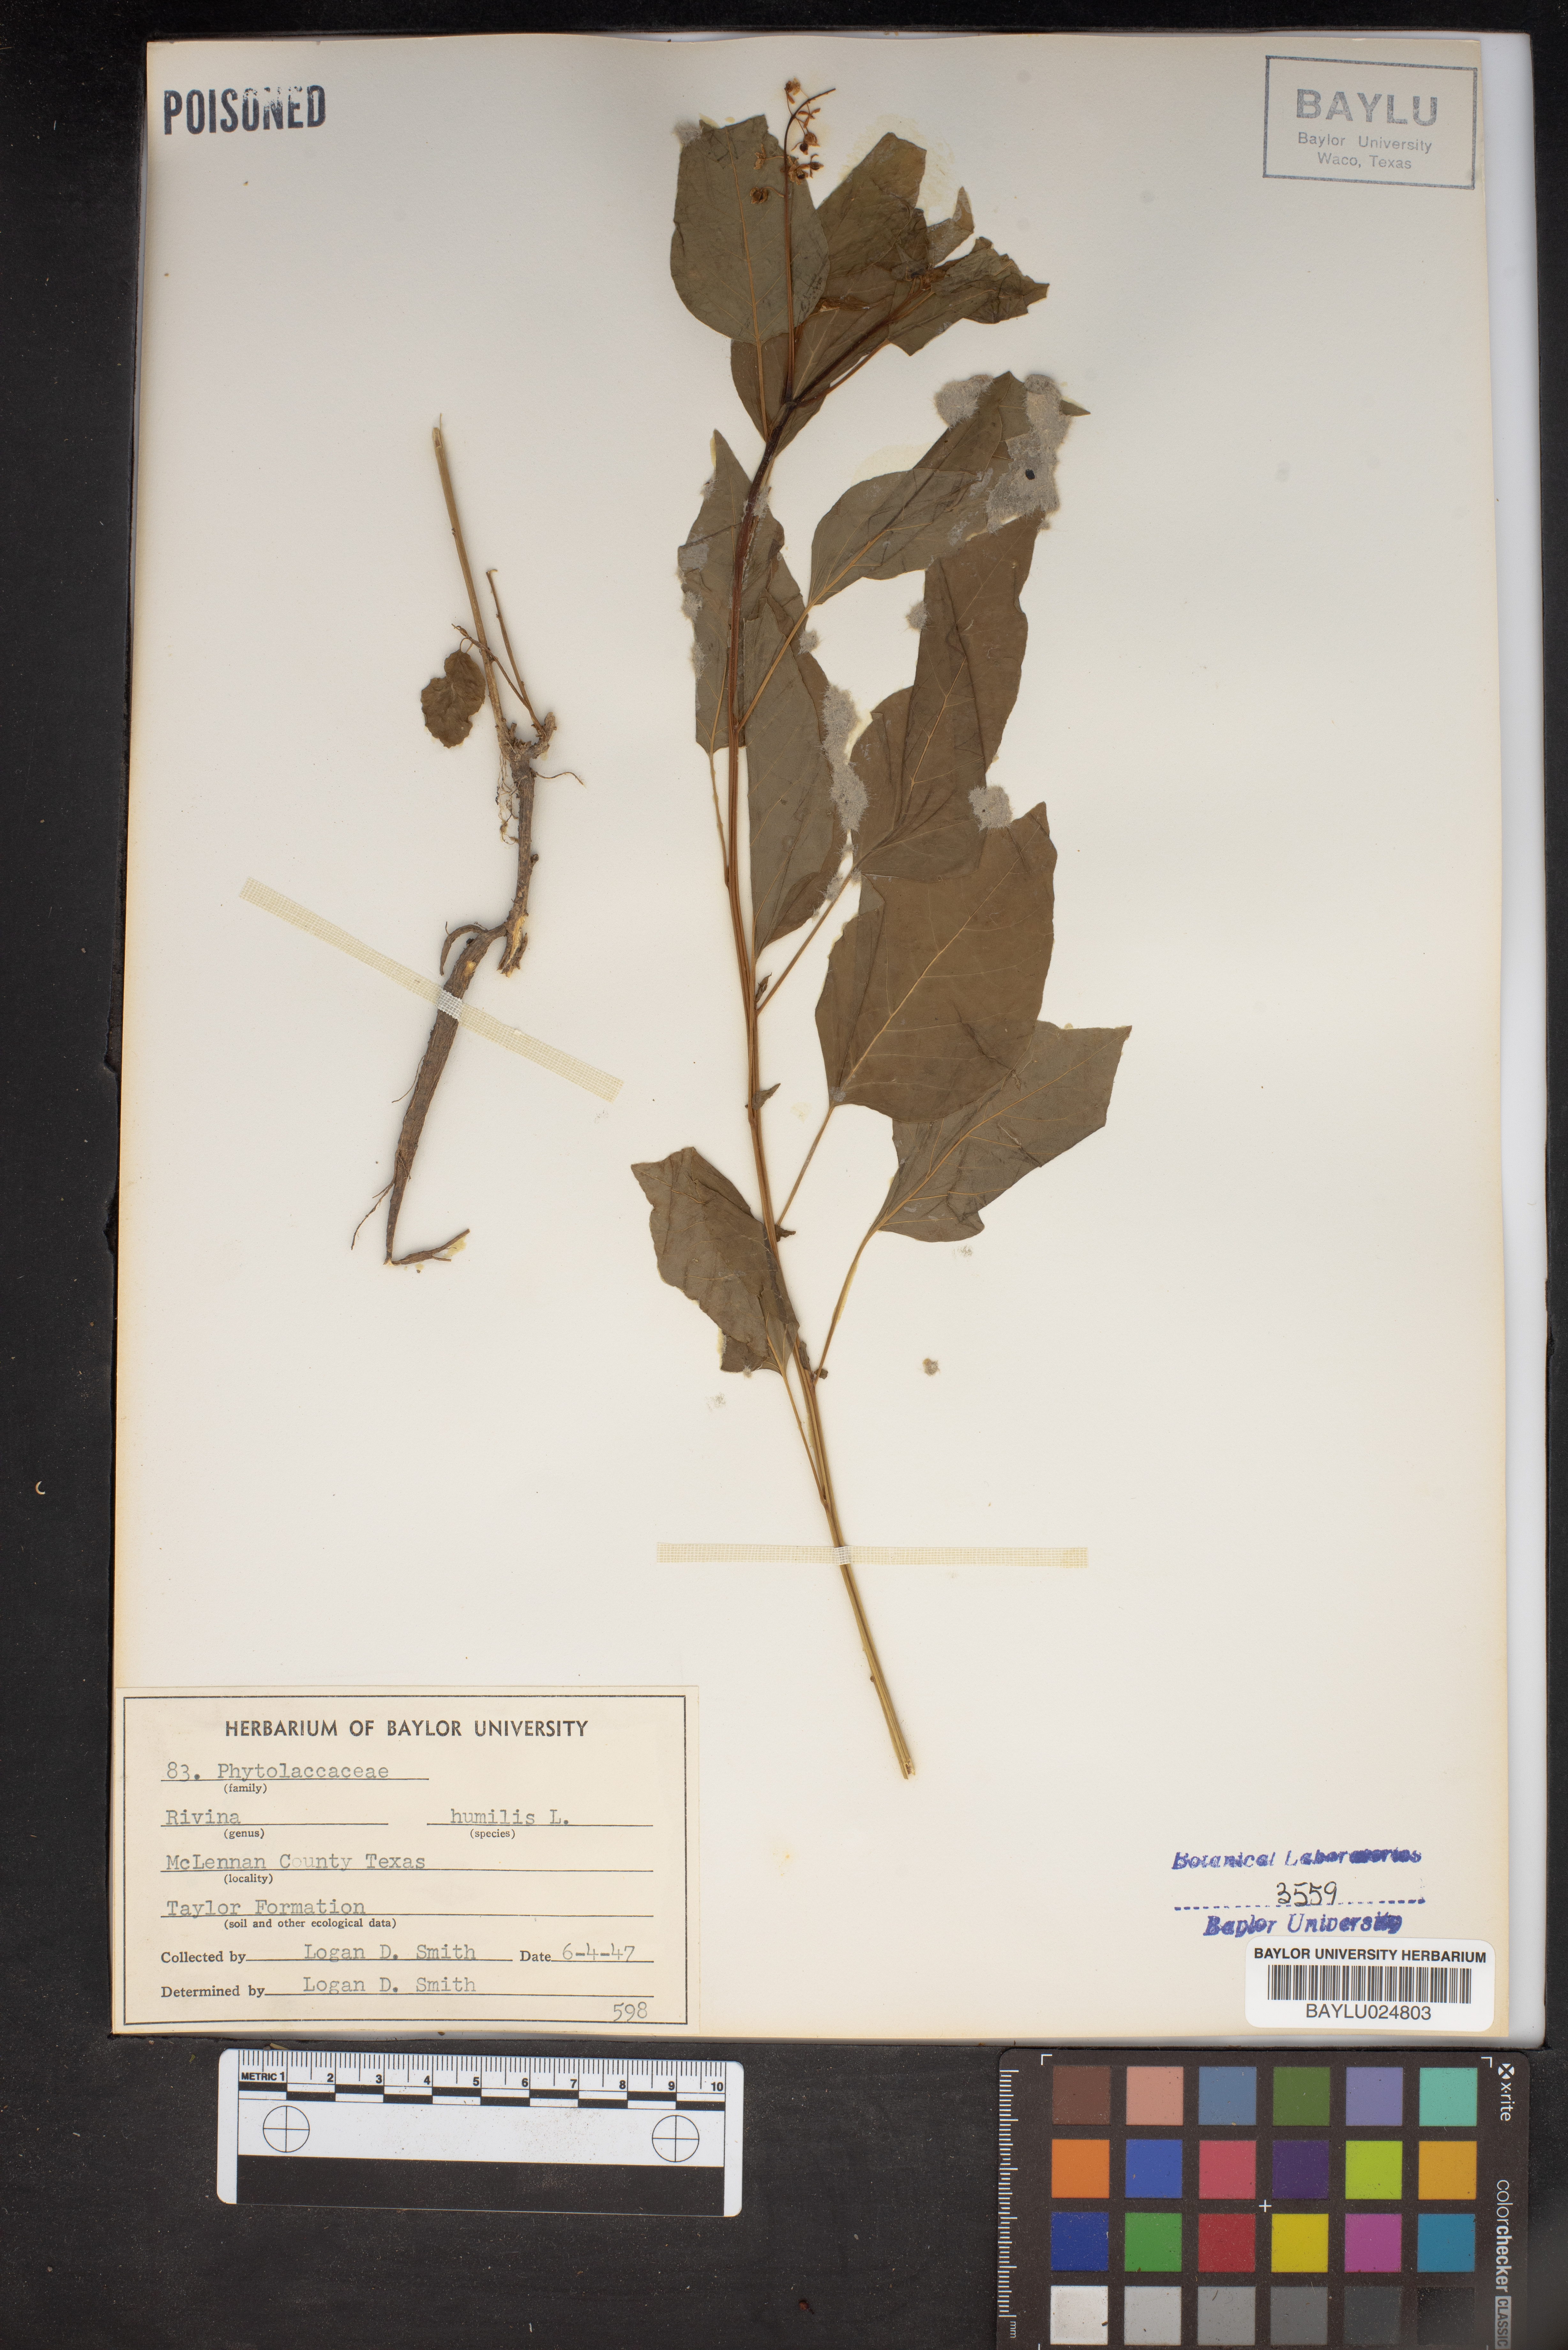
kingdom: Plantae
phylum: Tracheophyta
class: Magnoliopsida
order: Caryophyllales
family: Phytolaccaceae
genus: Rivina
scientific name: Rivina humilis
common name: Rougeplant
